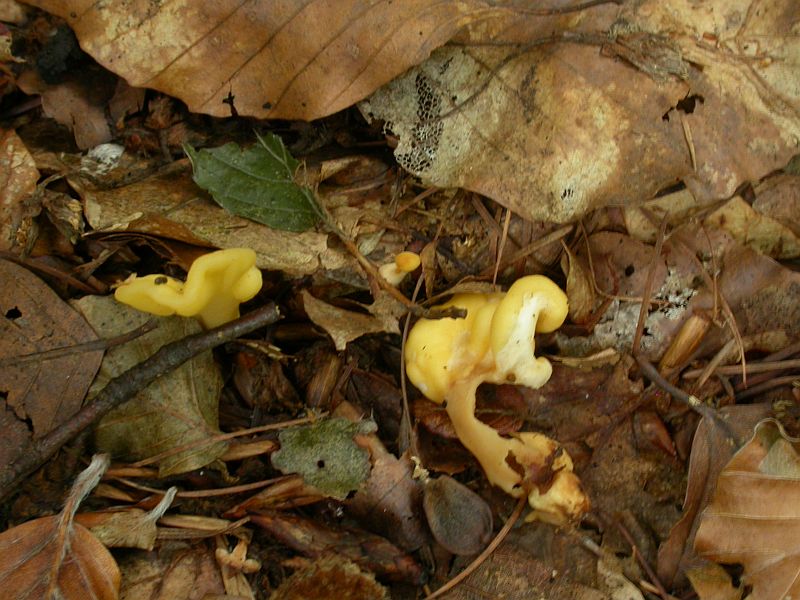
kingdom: Fungi
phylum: Ascomycota
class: Leotiomycetes
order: Rhytismatales
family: Cudoniaceae
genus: Spathularia
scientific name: Spathularia flavida
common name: gul spatelsvamp
